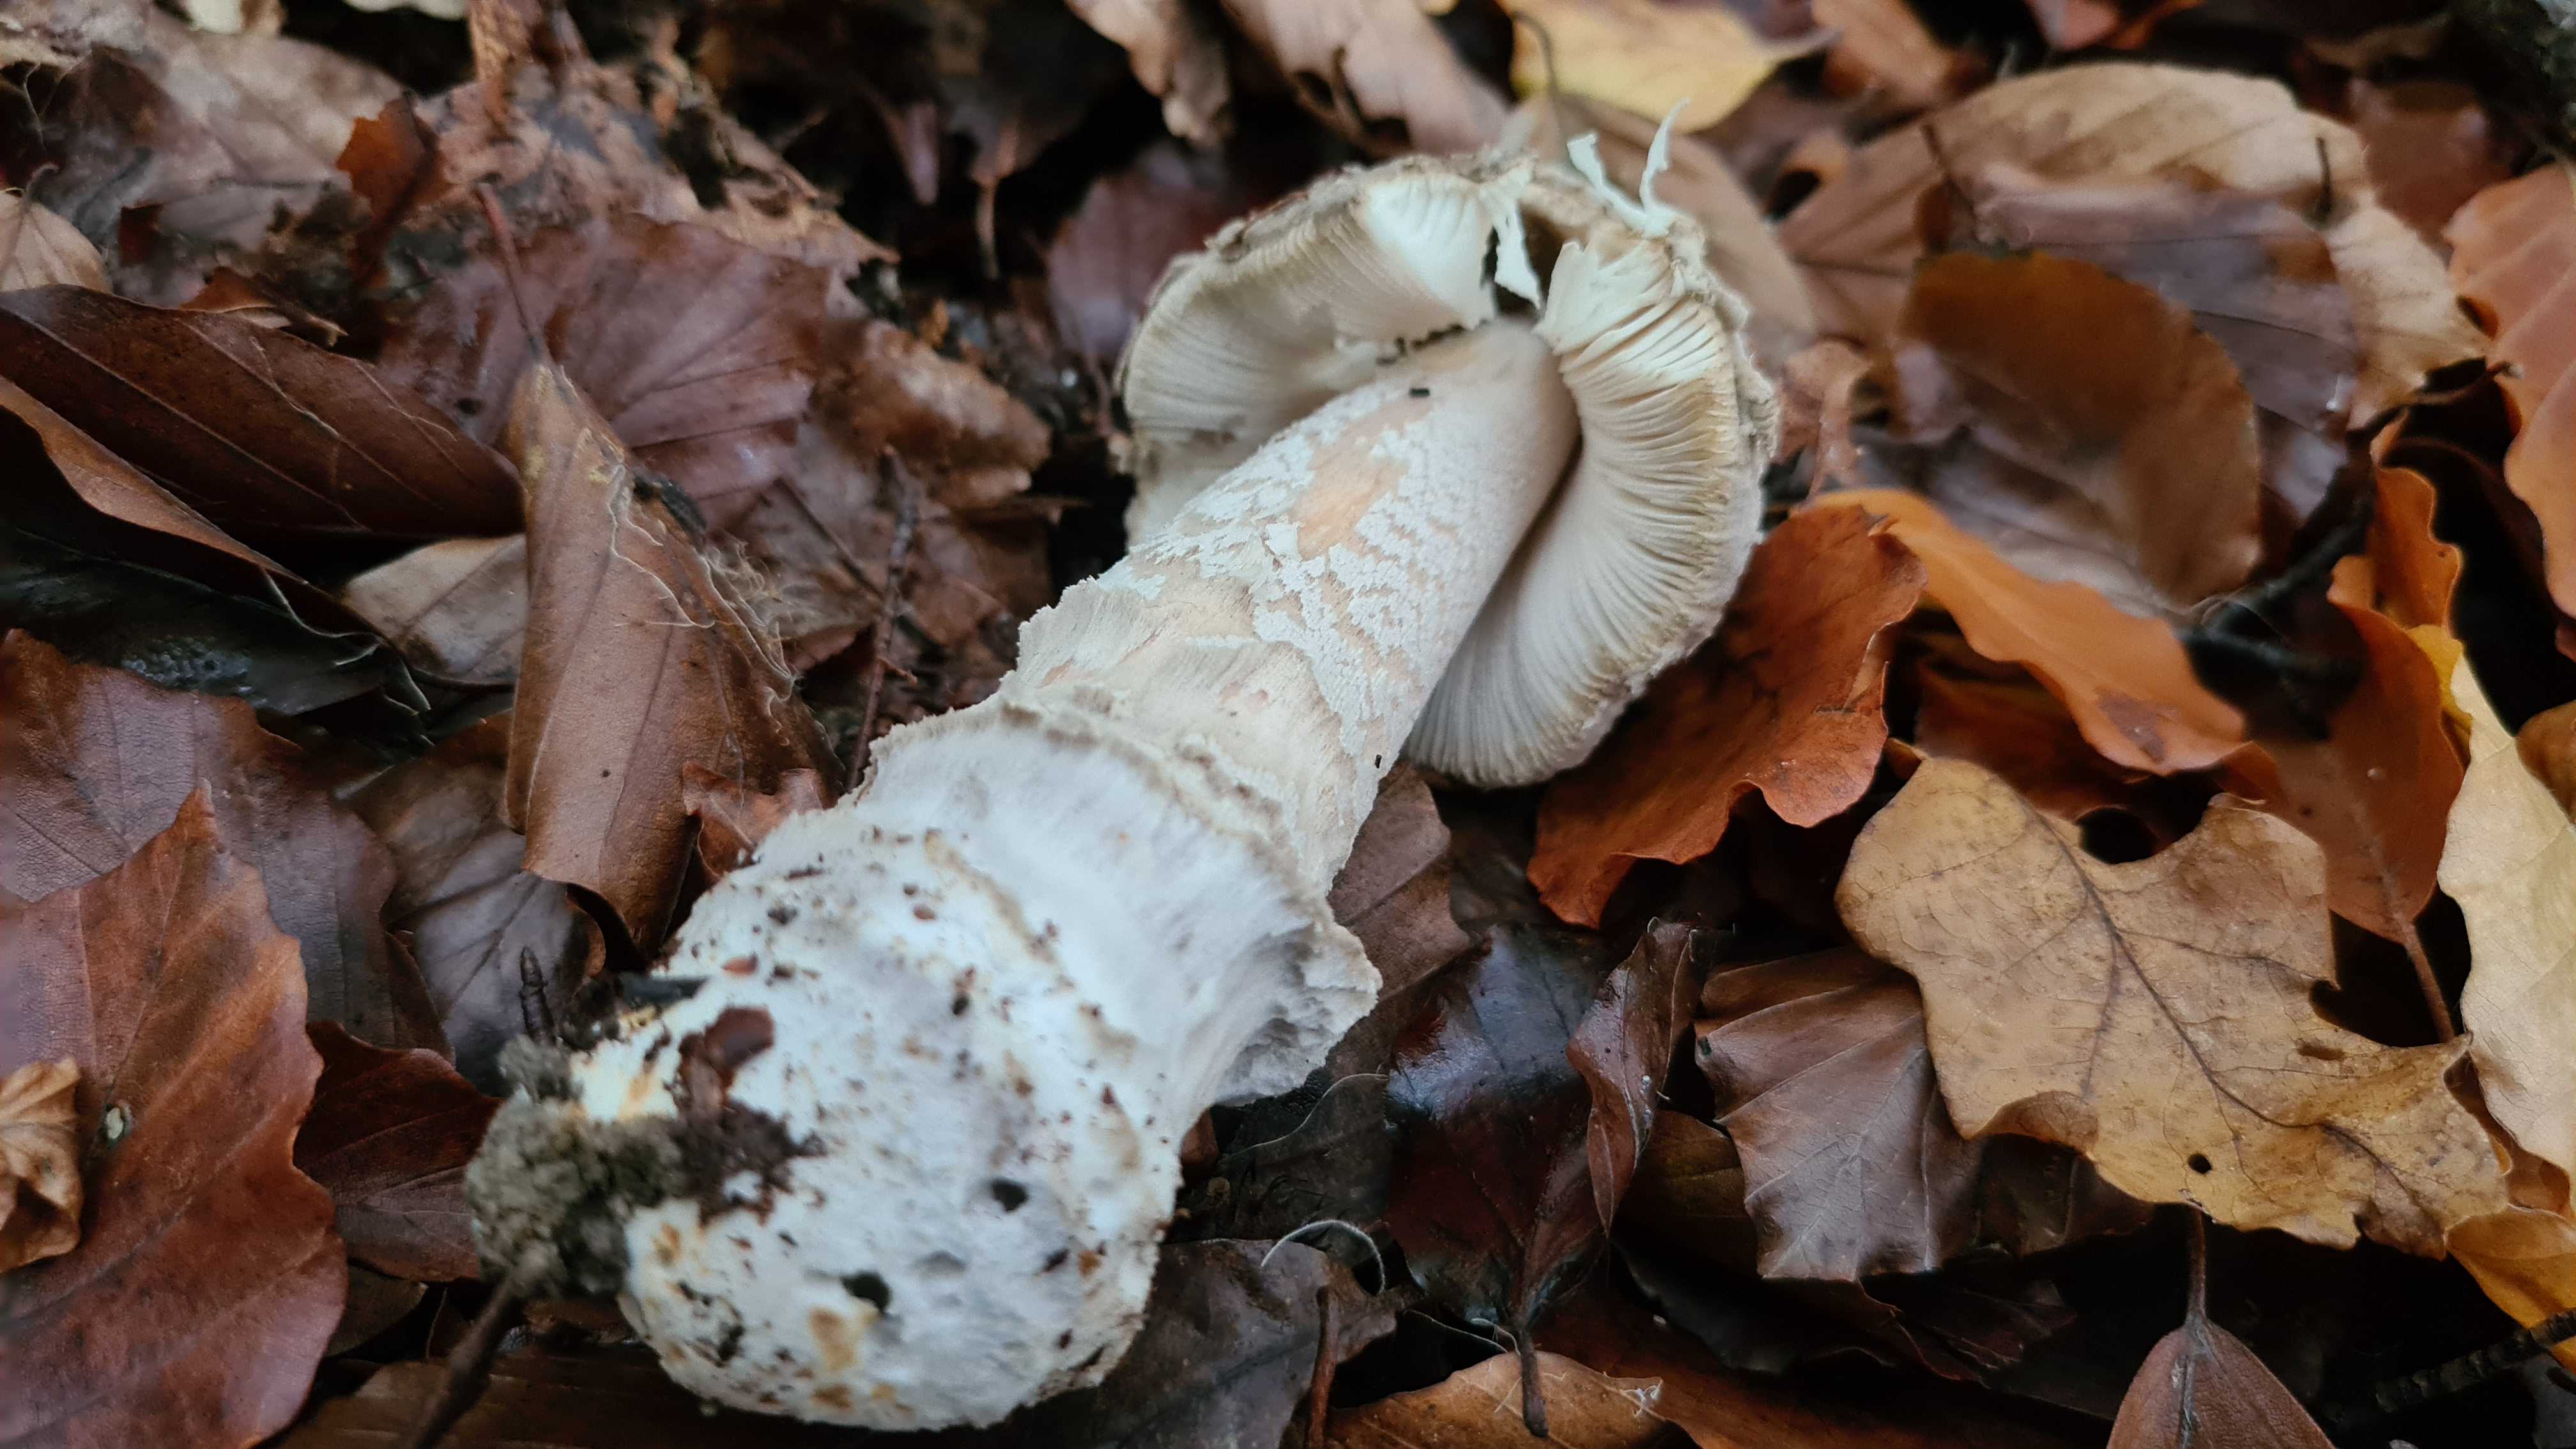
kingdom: Fungi
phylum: Basidiomycota
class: Agaricomycetes
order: Agaricales
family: Amanitaceae
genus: Amanita
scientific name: Amanita ceciliae
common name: stor kam-fluesvamp
